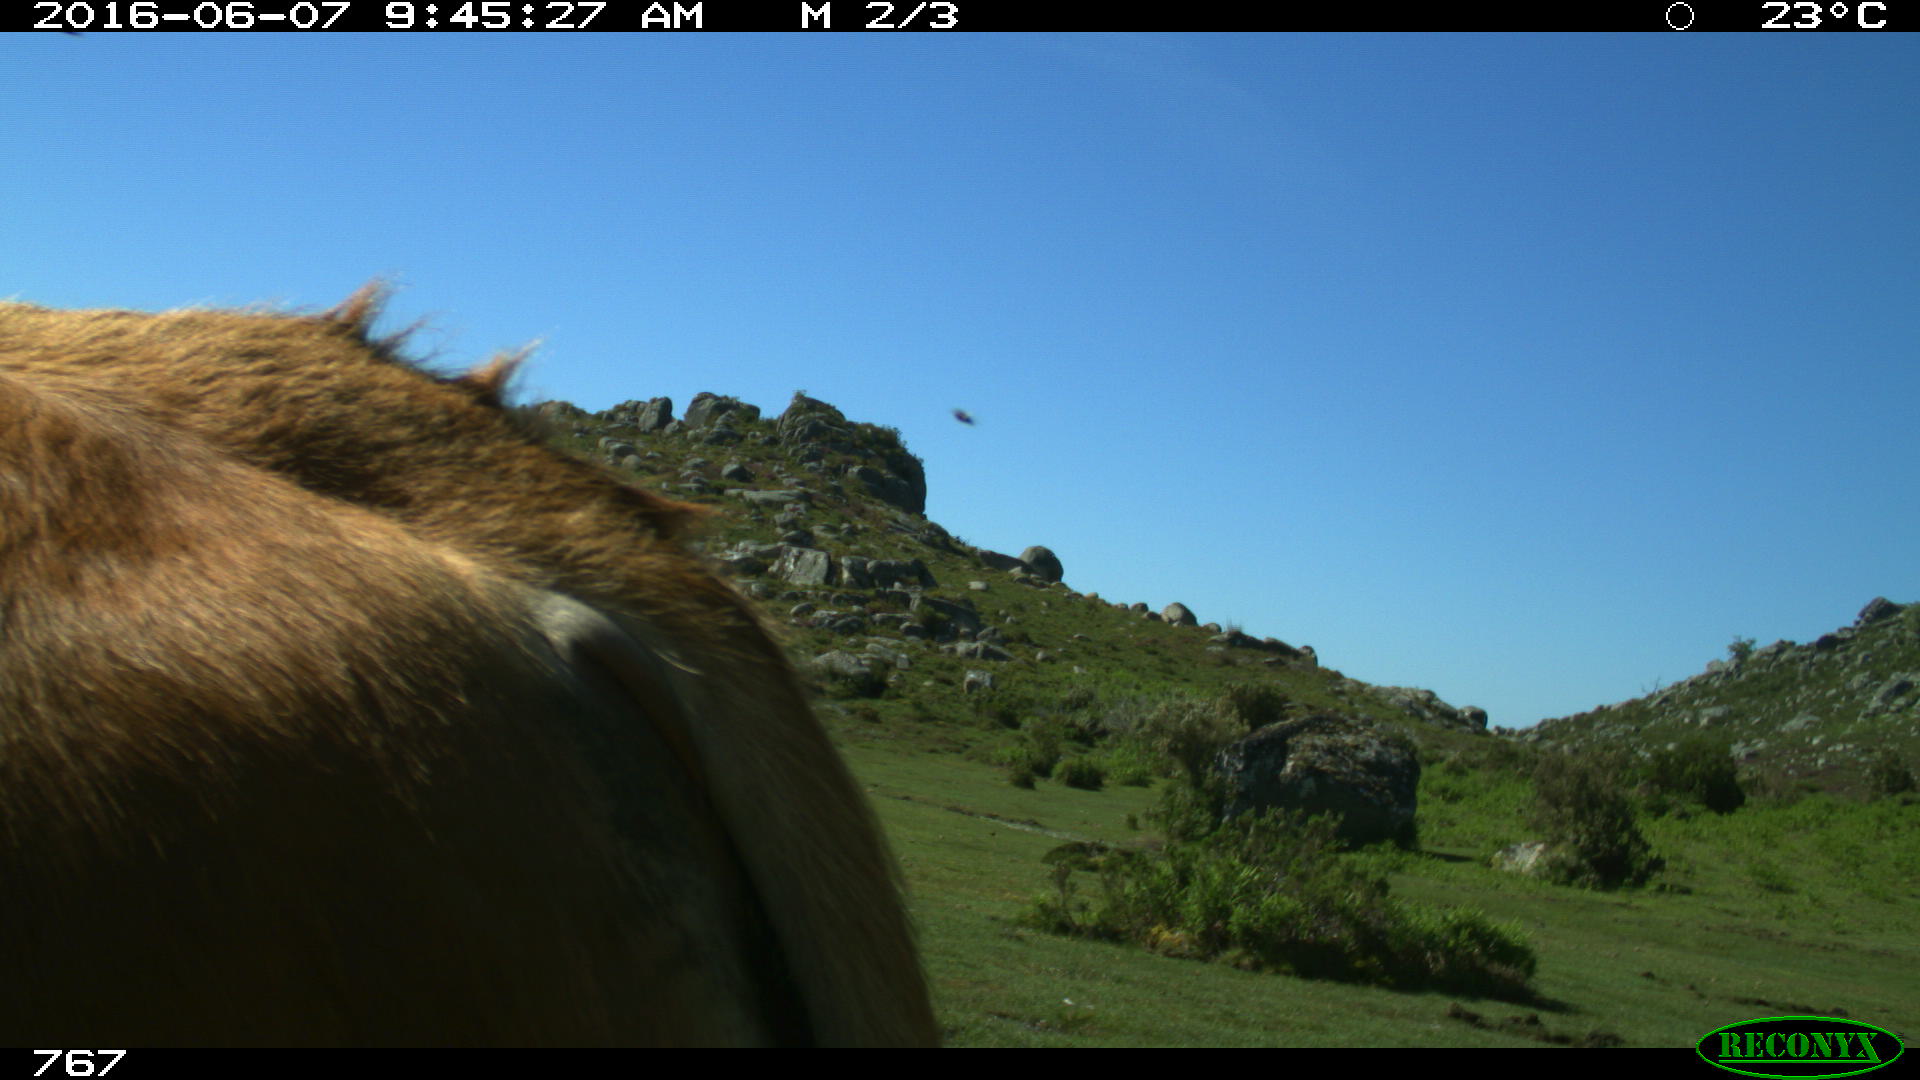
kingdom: Animalia
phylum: Chordata
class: Mammalia
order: Artiodactyla
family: Bovidae
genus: Bos
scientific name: Bos taurus
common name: Domesticated cattle
